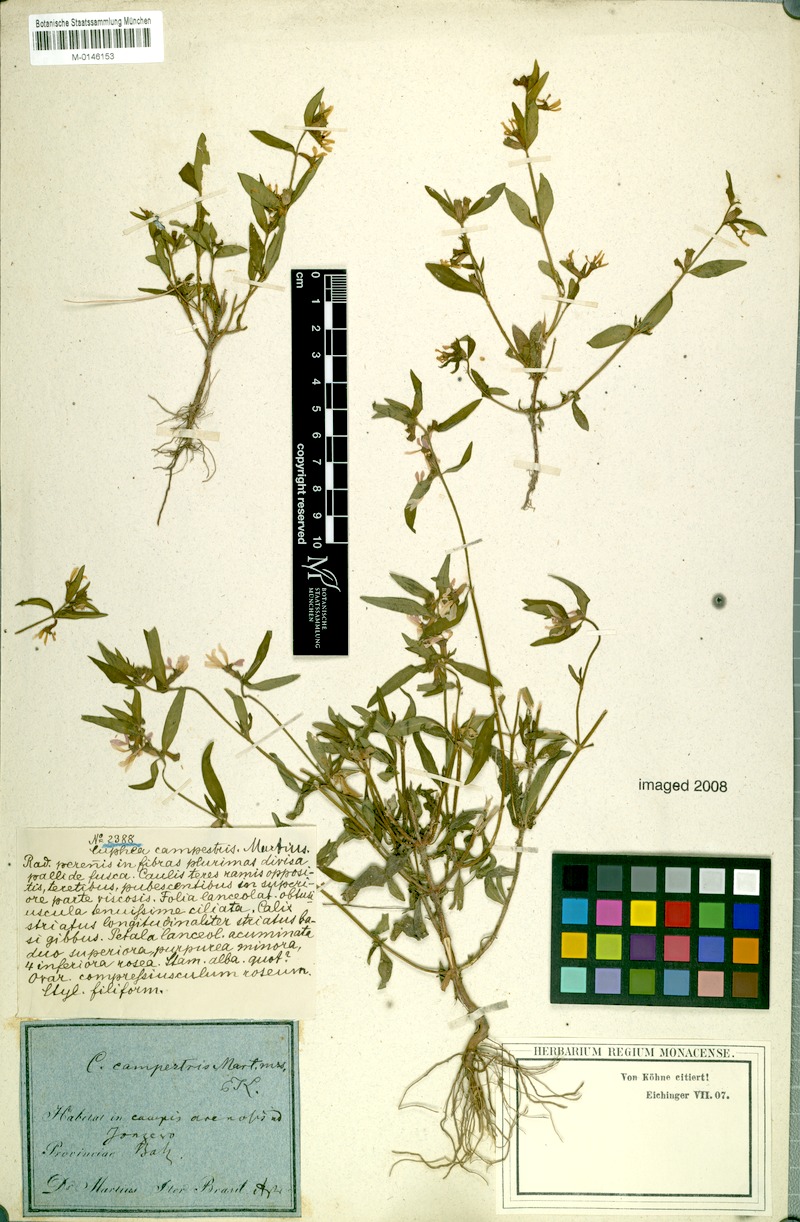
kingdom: Plantae
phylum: Tracheophyta
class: Magnoliopsida
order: Myrtales
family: Lythraceae
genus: Cuphea
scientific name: Cuphea campestris
